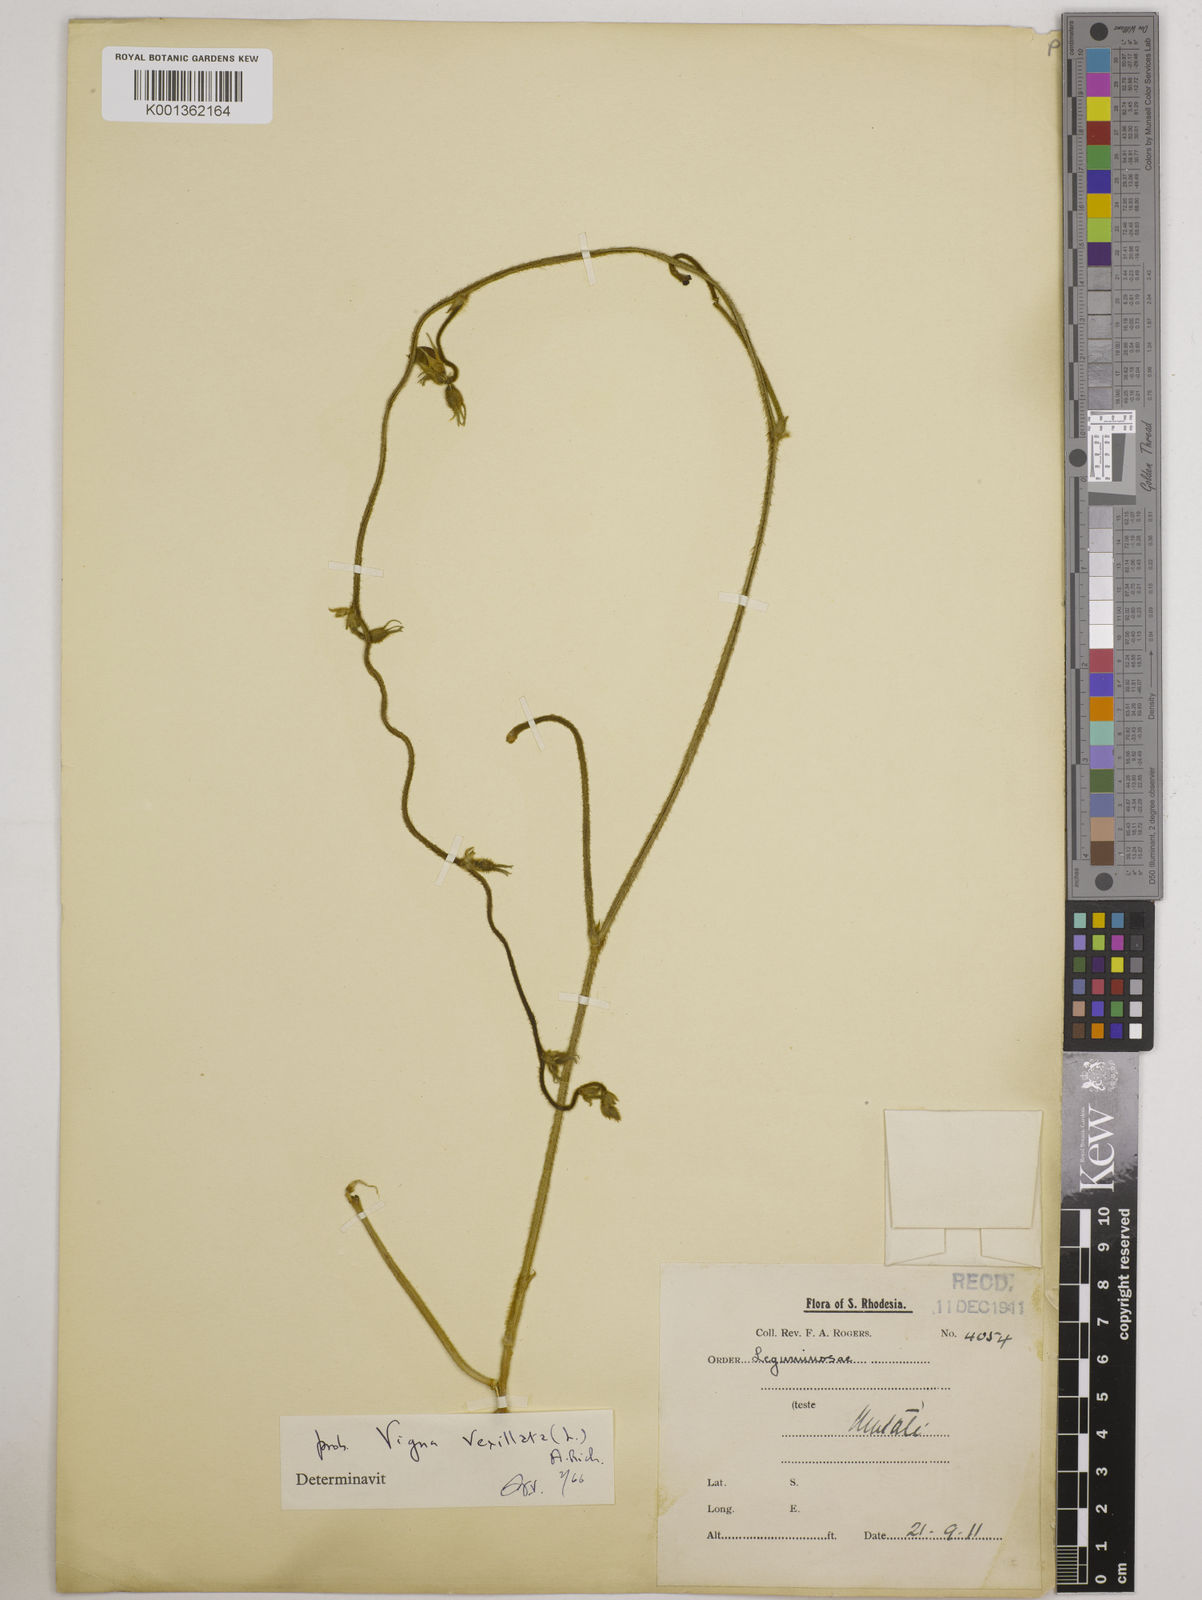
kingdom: Plantae
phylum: Tracheophyta
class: Magnoliopsida
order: Fabales
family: Fabaceae
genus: Vigna
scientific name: Vigna vexillata
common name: Zombi pea
